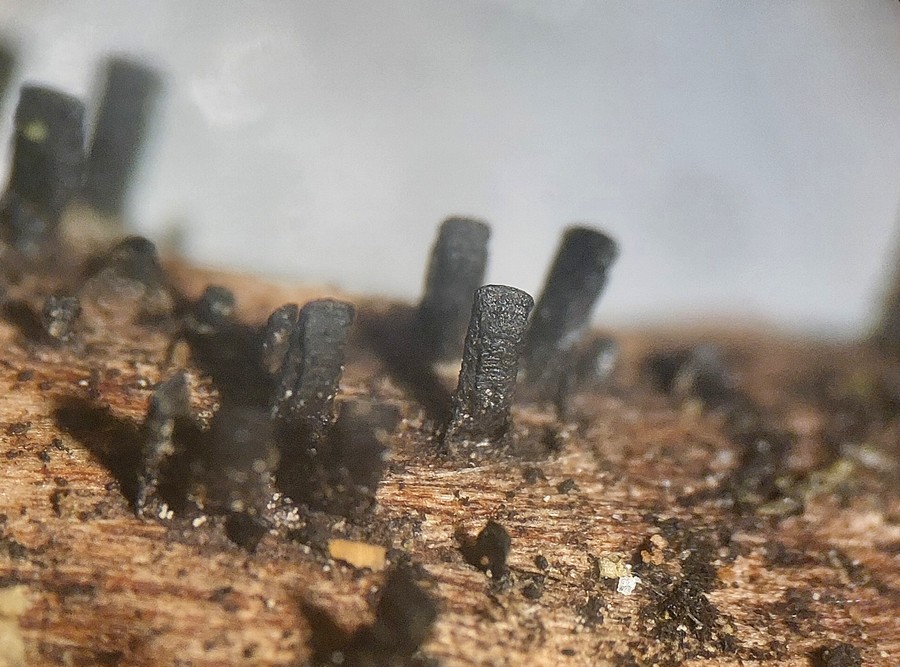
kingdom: Fungi
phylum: Ascomycota
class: Eurotiomycetes
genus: Glyphium
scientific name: Glyphium elatum
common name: kuløkse
